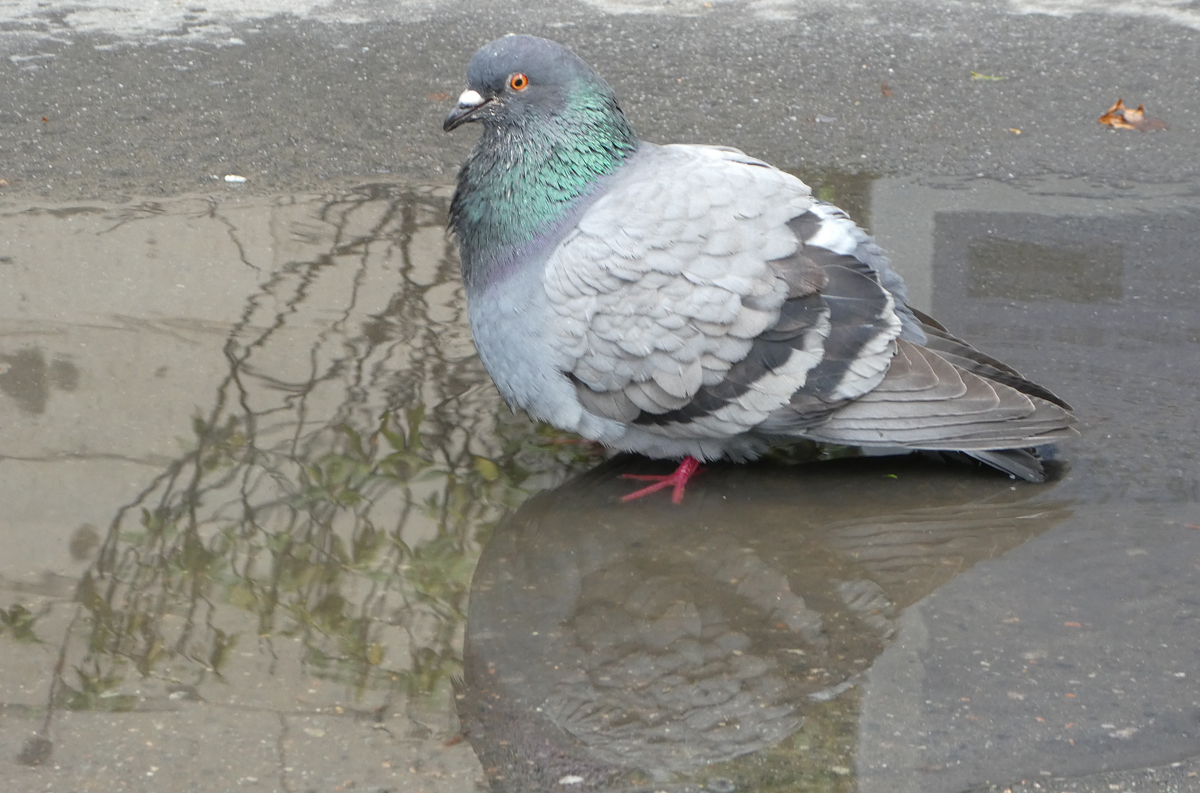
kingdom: Animalia
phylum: Chordata
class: Aves
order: Columbiformes
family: Columbidae
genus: Columba
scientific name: Columba livia
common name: Rock pigeon
